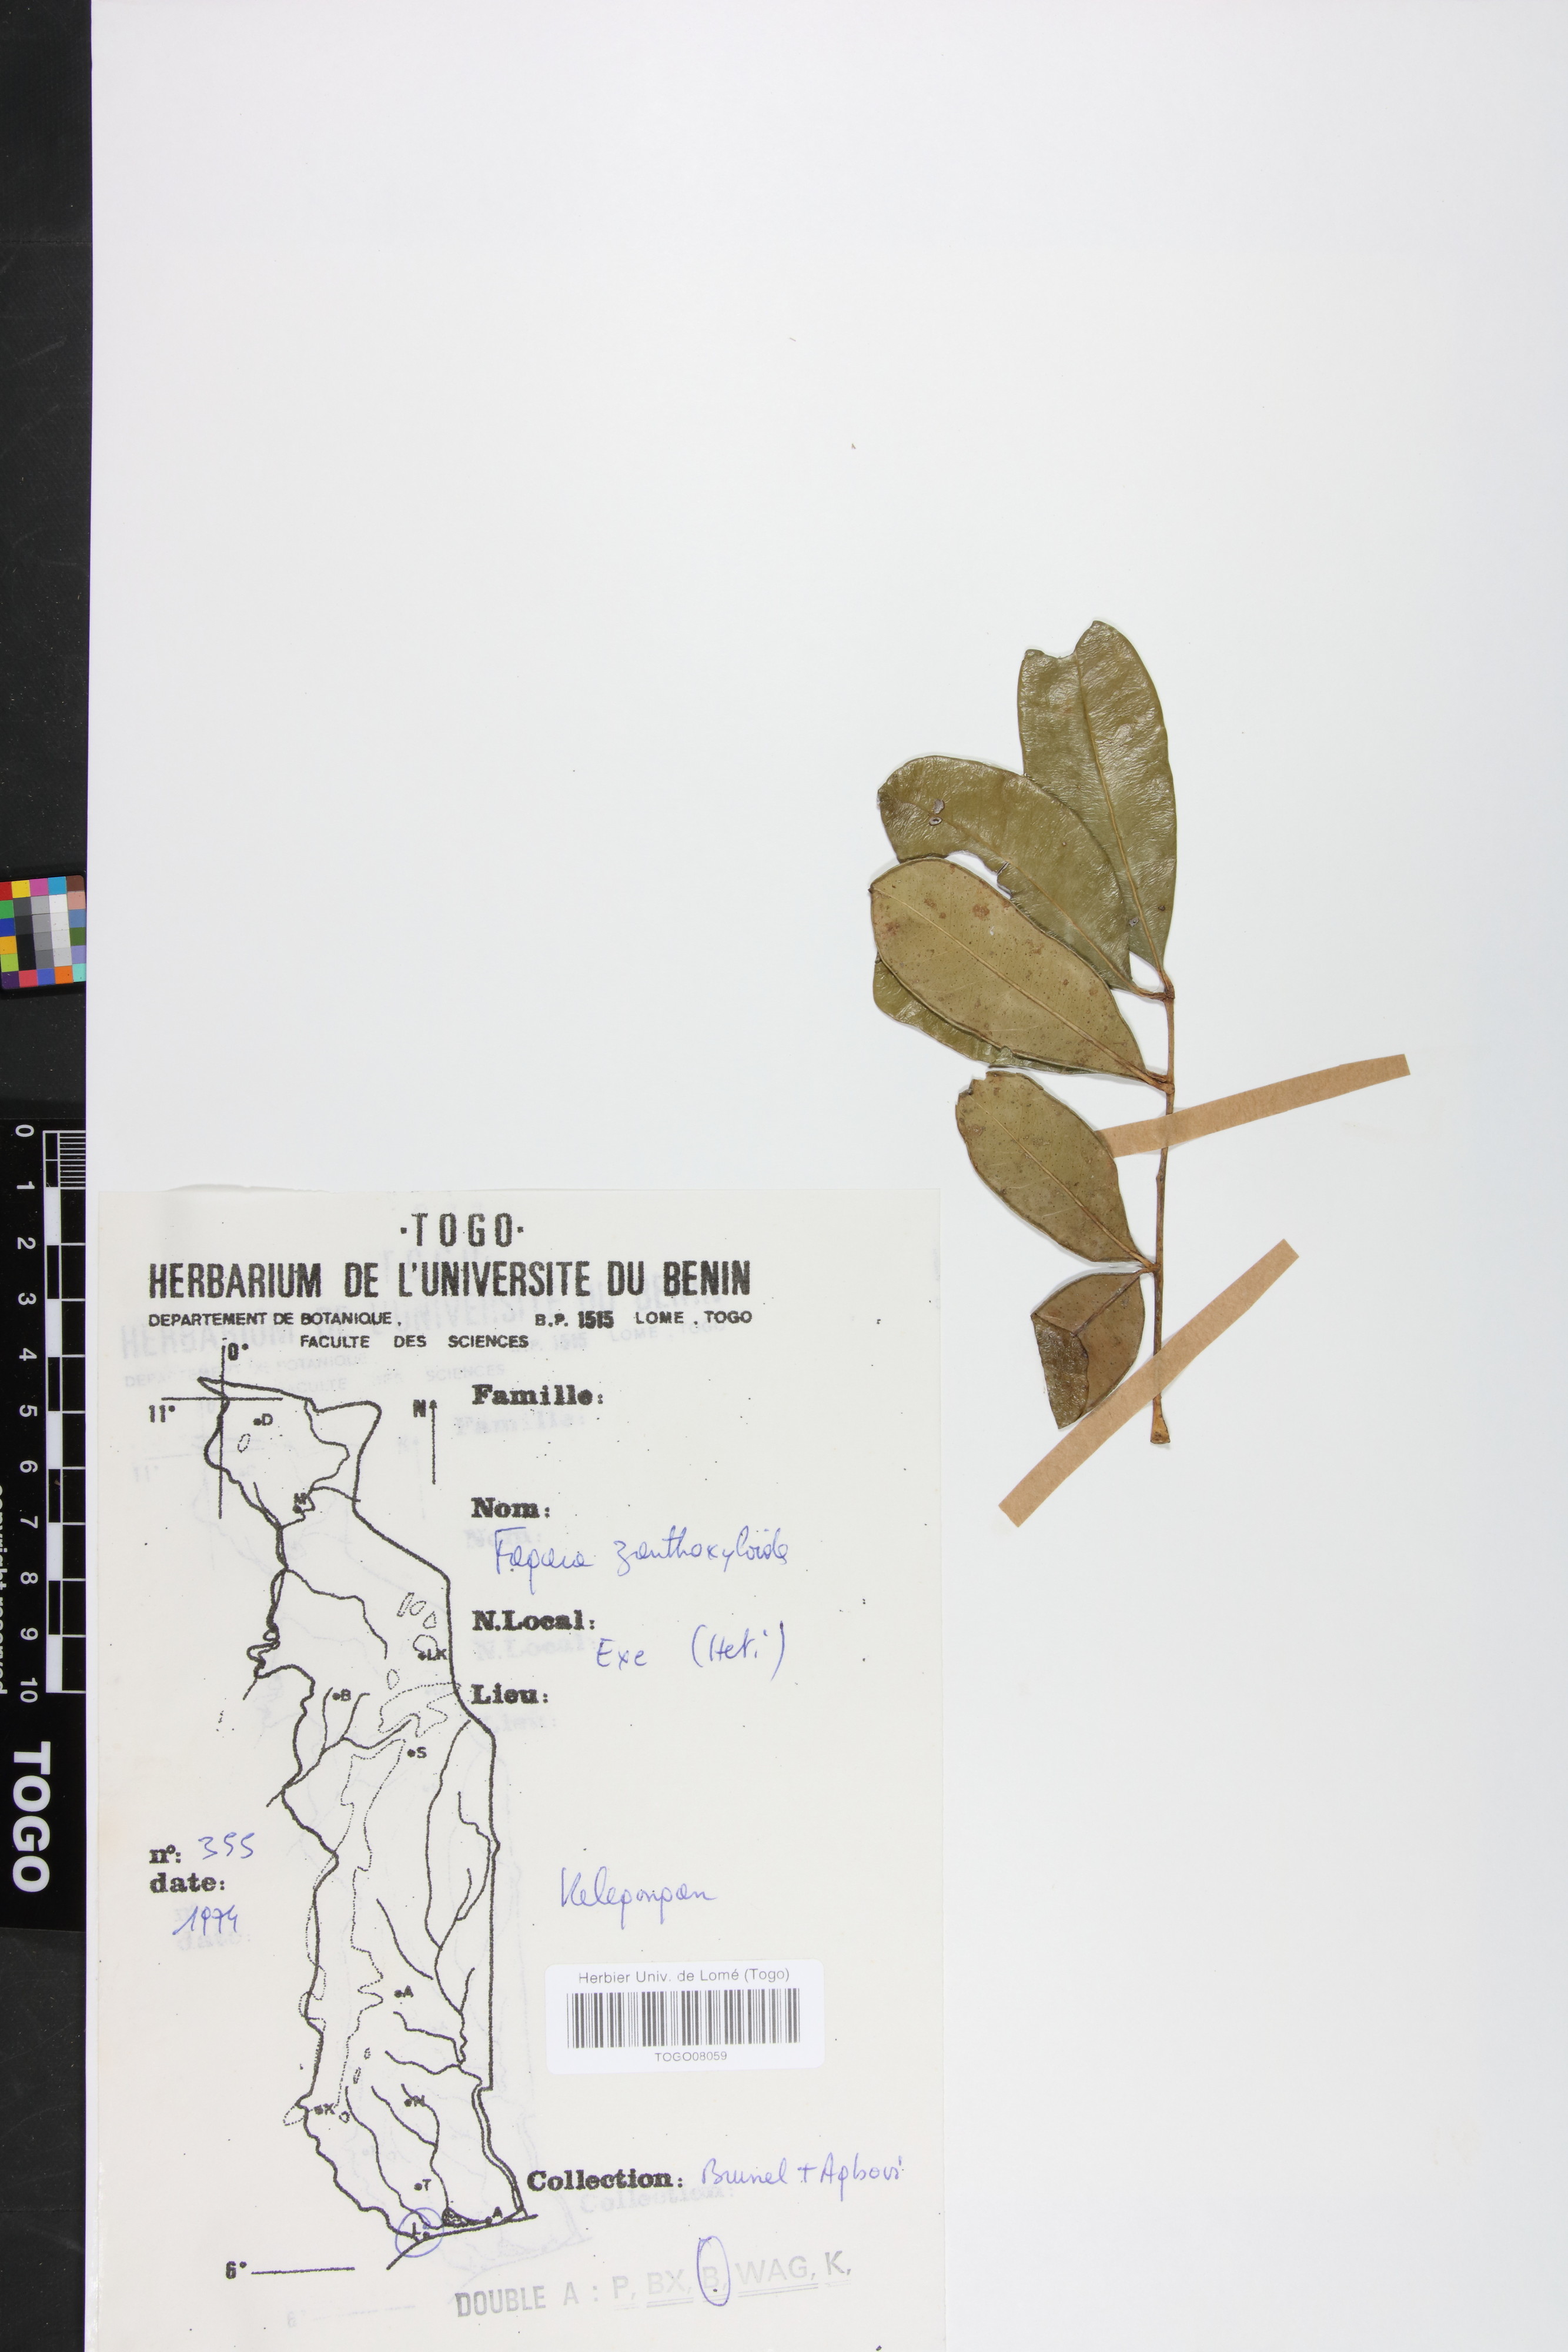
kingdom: Plantae
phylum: Tracheophyta
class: Magnoliopsida
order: Sapindales
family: Rutaceae
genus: Zanthoxylum
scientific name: Zanthoxylum zanthoxyloides
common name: Senegal prickly-ash
